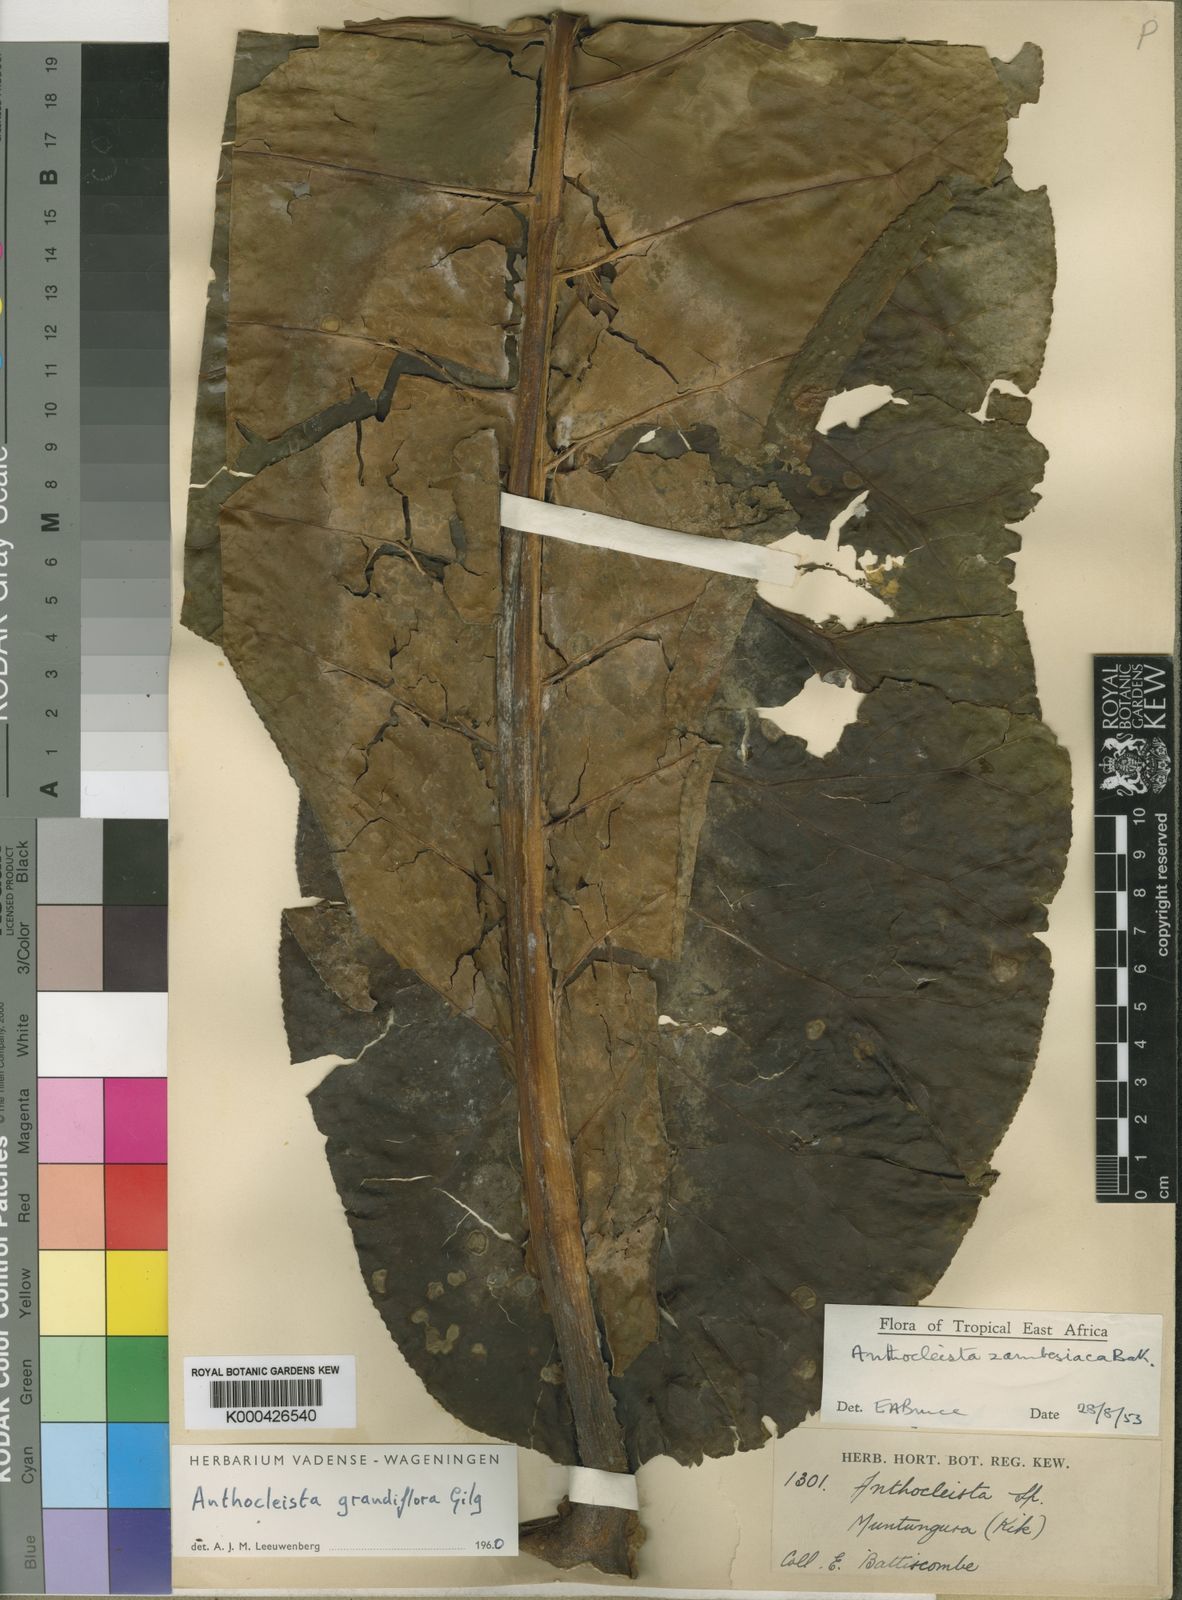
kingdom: Plantae
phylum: Tracheophyta
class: Magnoliopsida
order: Gentianales
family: Gentianaceae
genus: Anthocleista
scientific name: Anthocleista grandiflora
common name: Forest big-leaf
